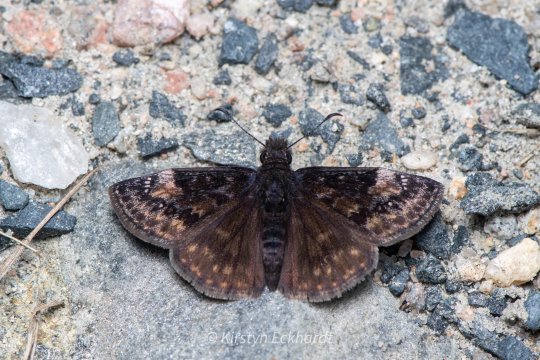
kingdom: Animalia
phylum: Arthropoda
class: Insecta
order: Lepidoptera
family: Hesperiidae
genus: Gesta
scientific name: Gesta
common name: Columbine Duskywing
